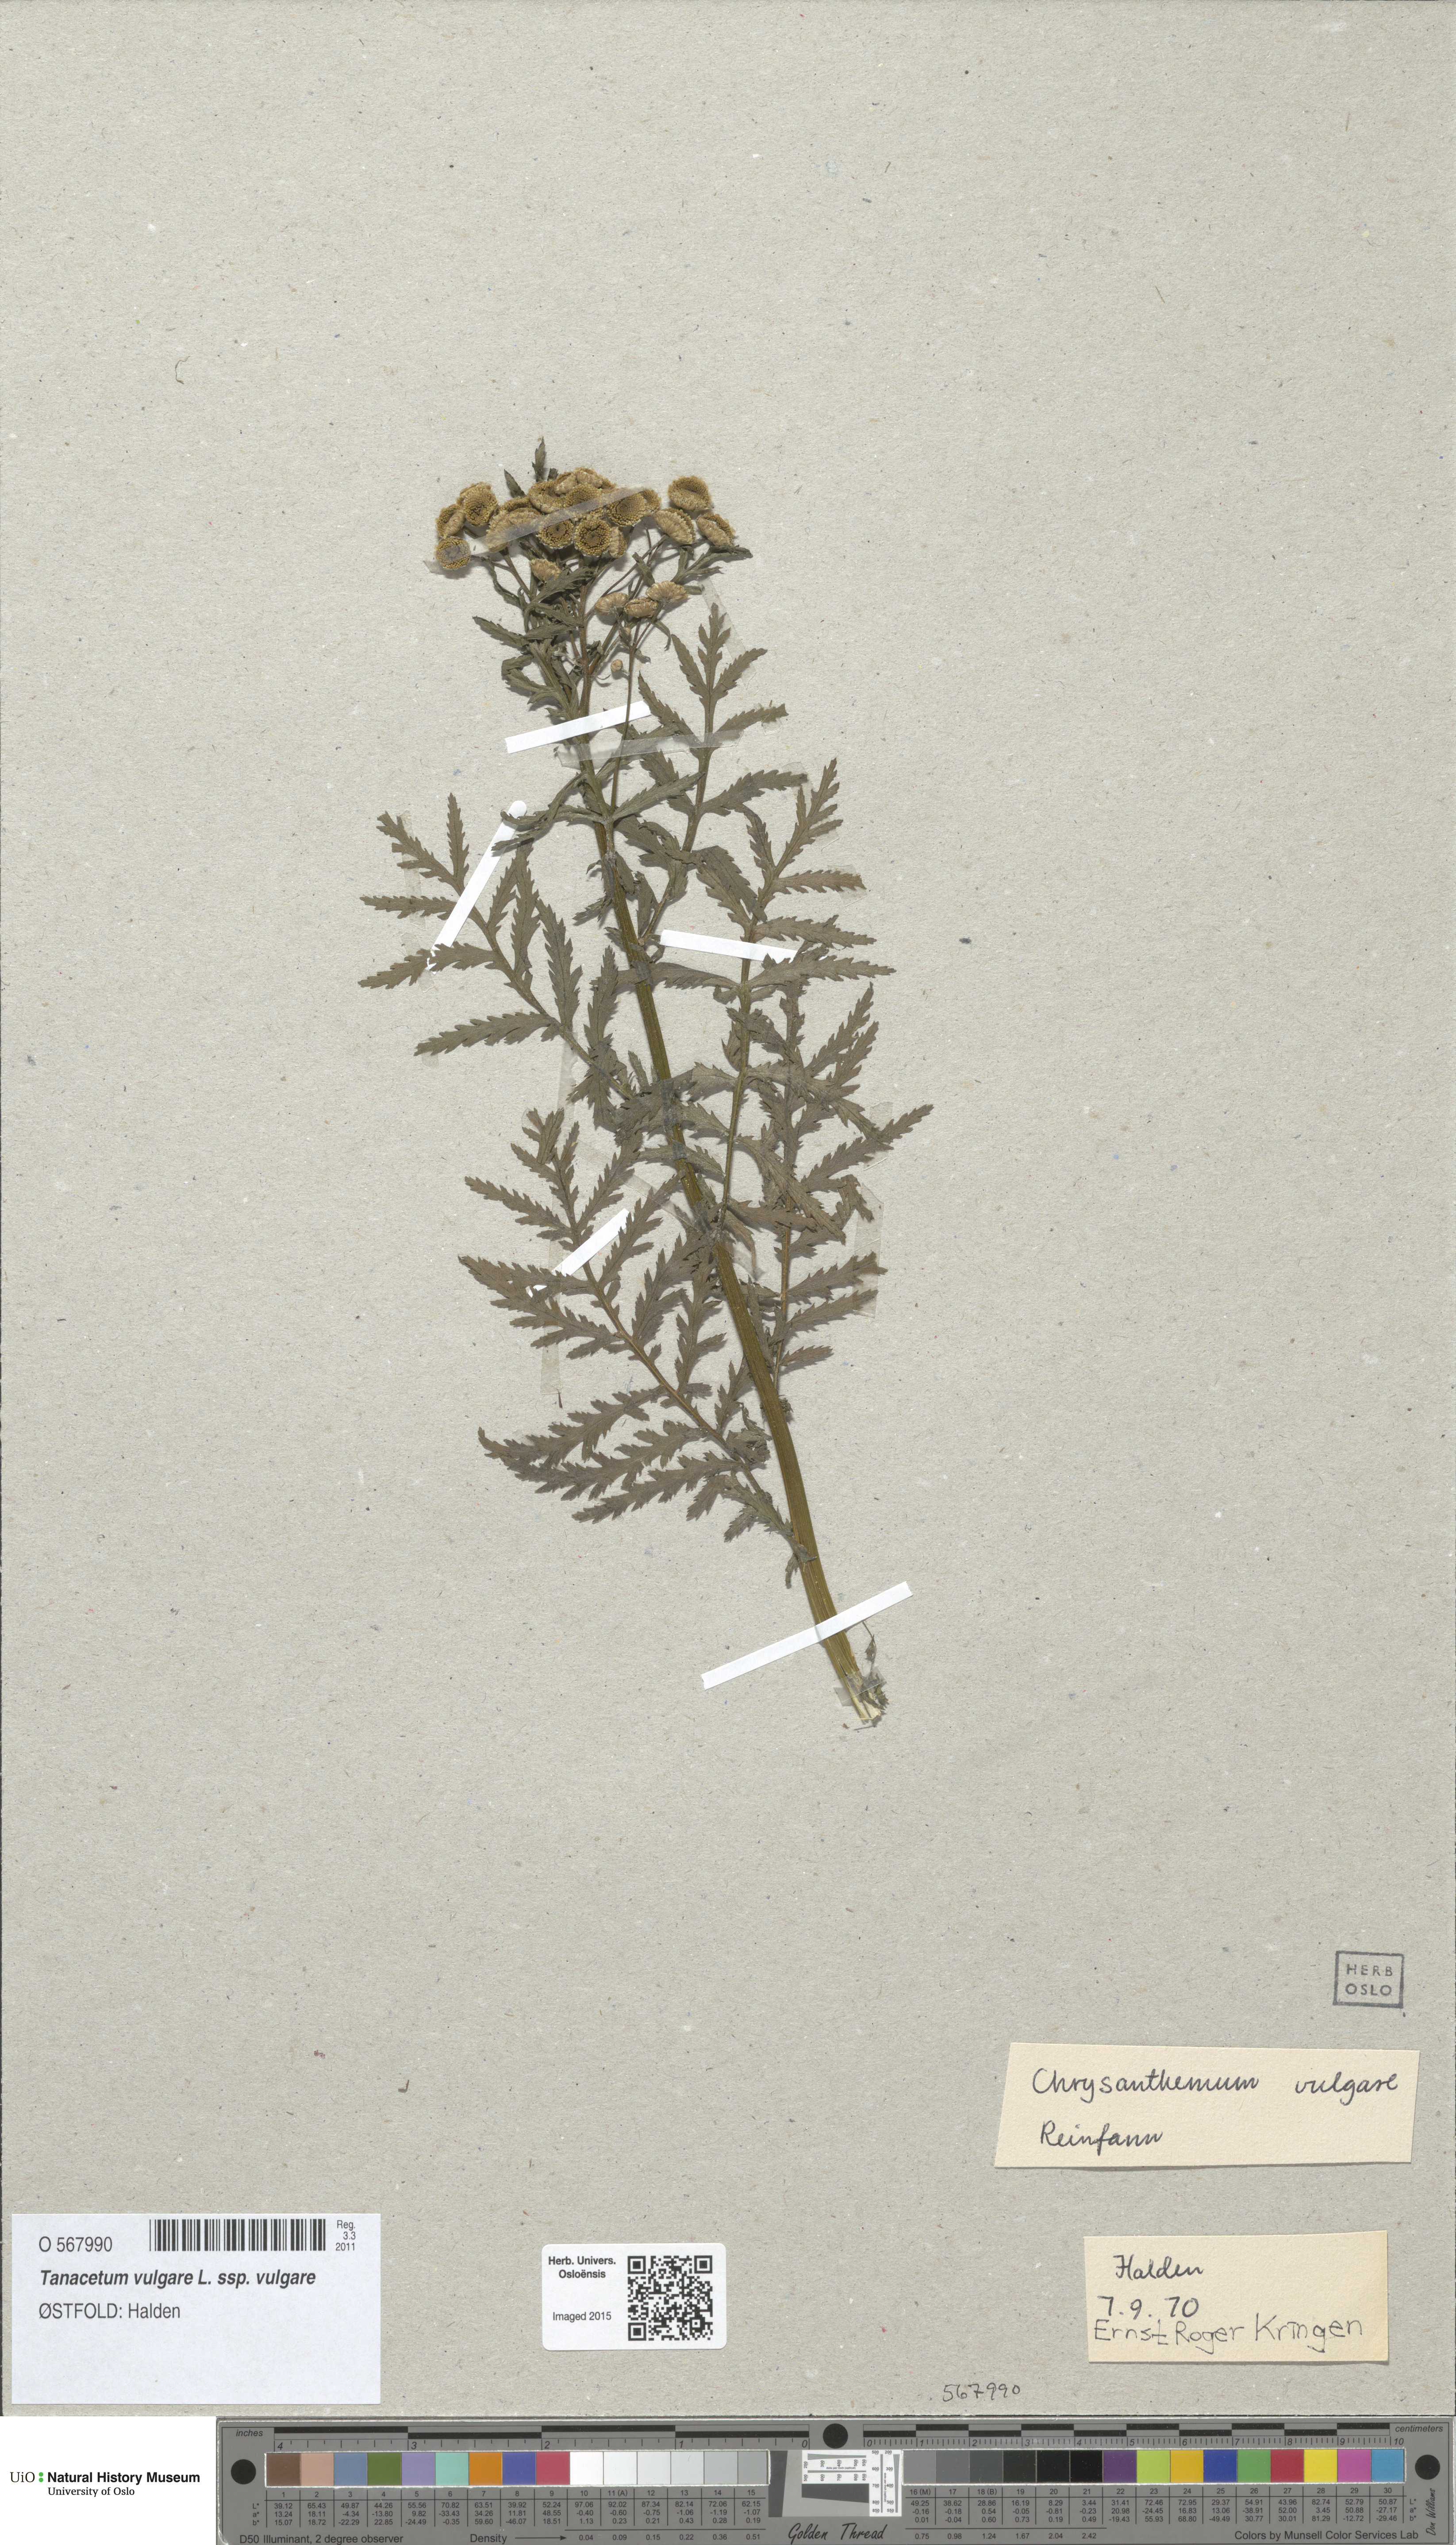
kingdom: Plantae
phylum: Tracheophyta
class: Magnoliopsida
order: Asterales
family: Asteraceae
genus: Tanacetum
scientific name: Tanacetum vulgare
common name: Common tansy
